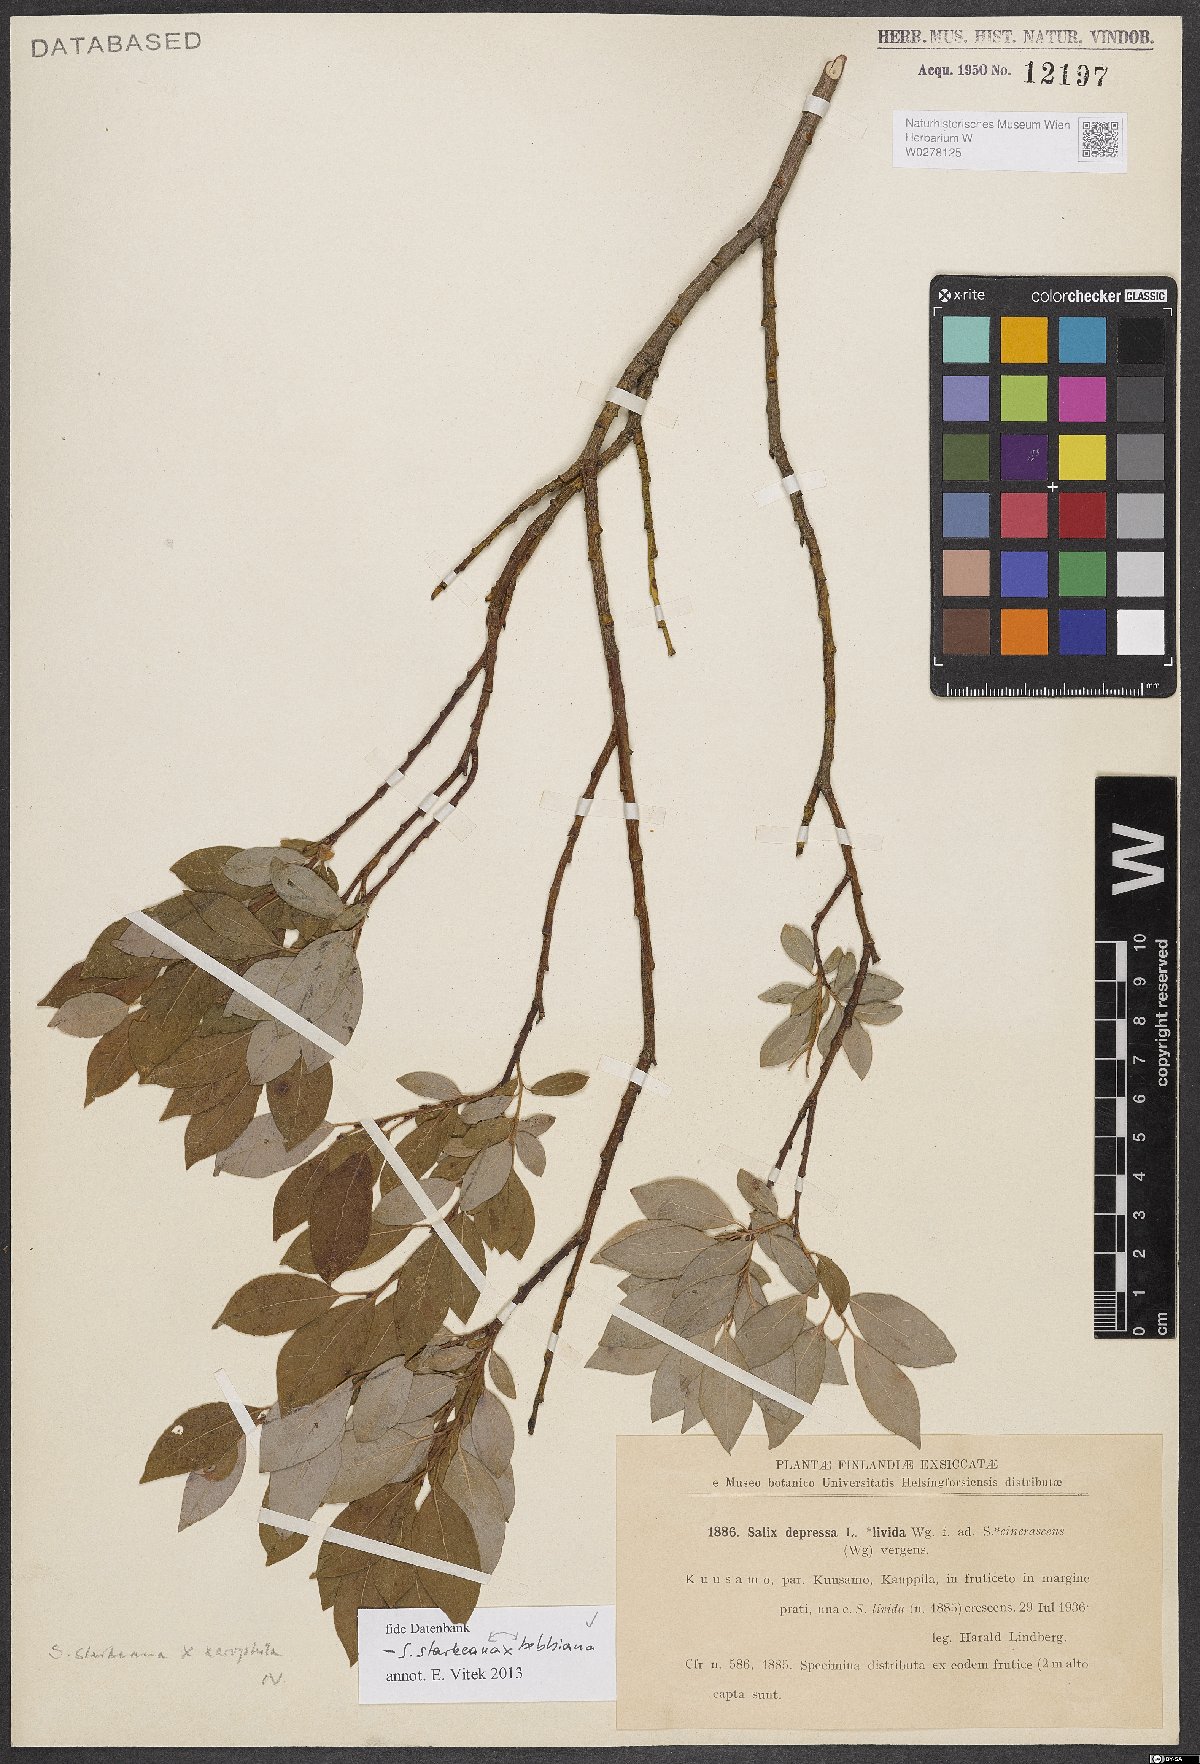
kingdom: Plantae
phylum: Tracheophyta
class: Magnoliopsida
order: Malpighiales
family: Salicaceae
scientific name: Salicaceae
